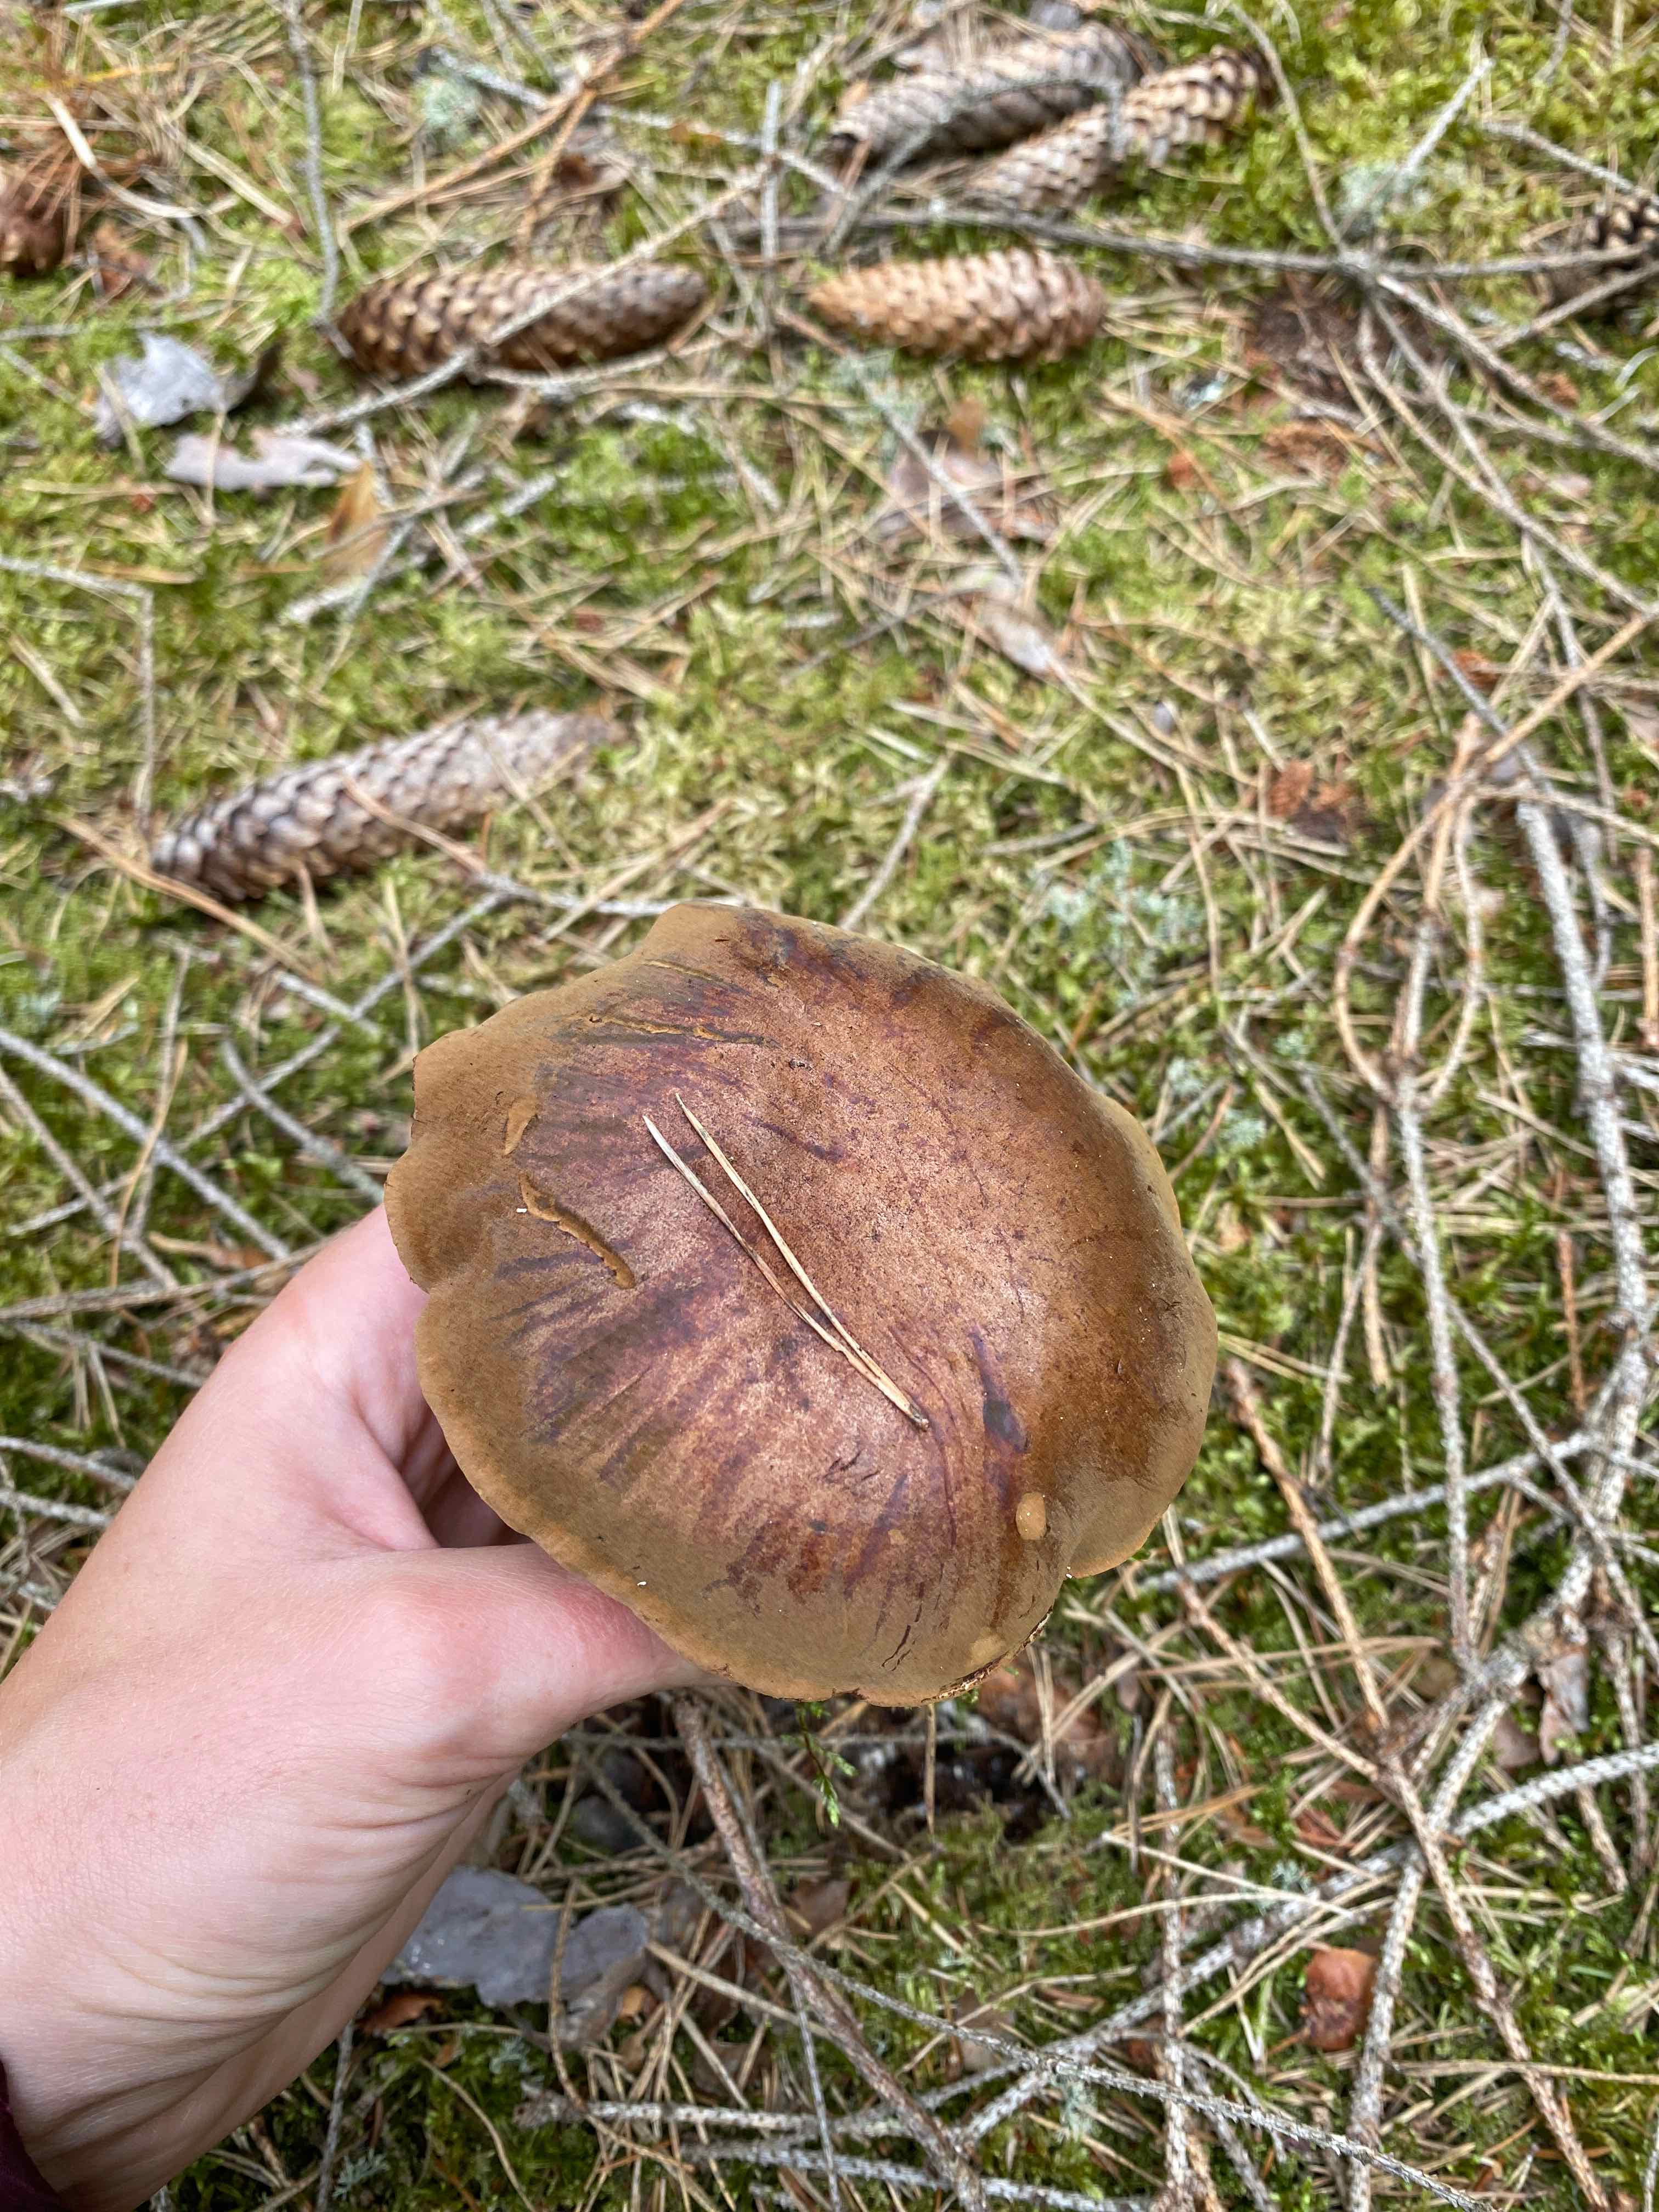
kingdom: Fungi
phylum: Basidiomycota
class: Agaricomycetes
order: Boletales
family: Boletaceae
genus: Imleria
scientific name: Imleria badia
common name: brunstokket rørhat
